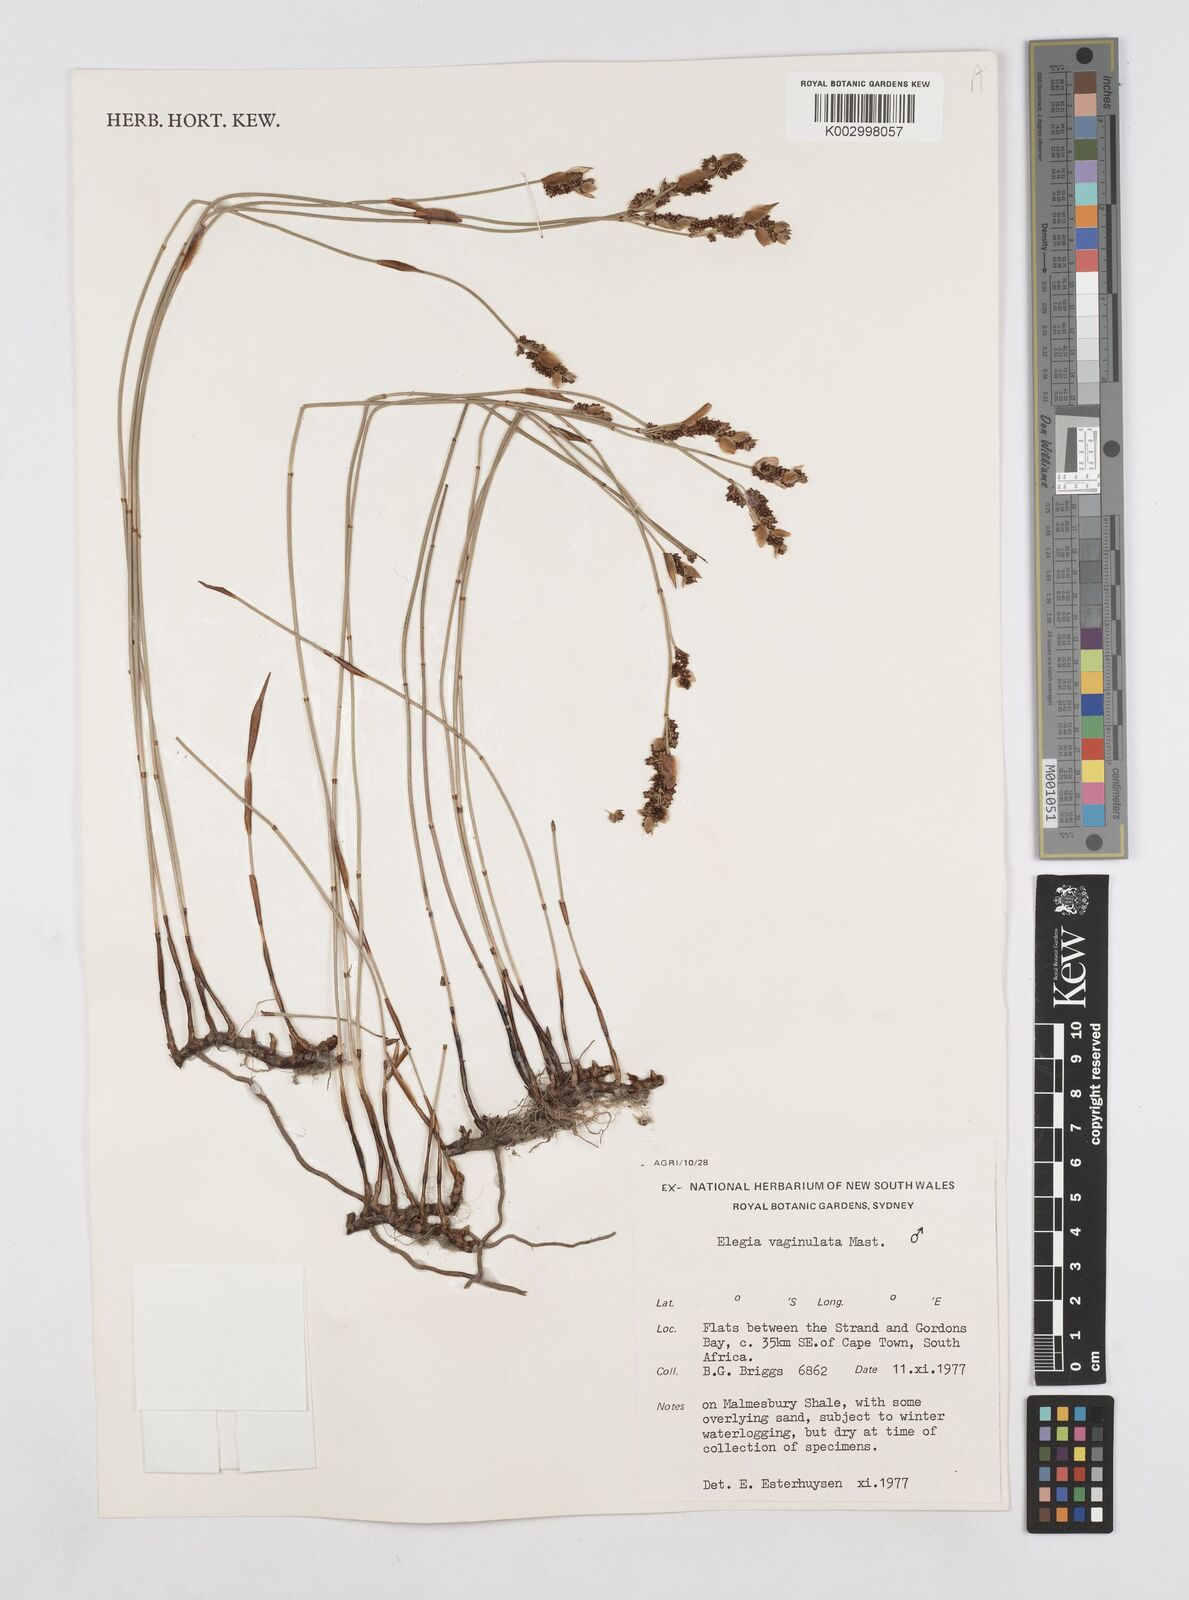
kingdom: Plantae
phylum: Tracheophyta
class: Liliopsida
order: Poales
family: Restionaceae
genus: Elegia
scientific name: Elegia vaginulata
